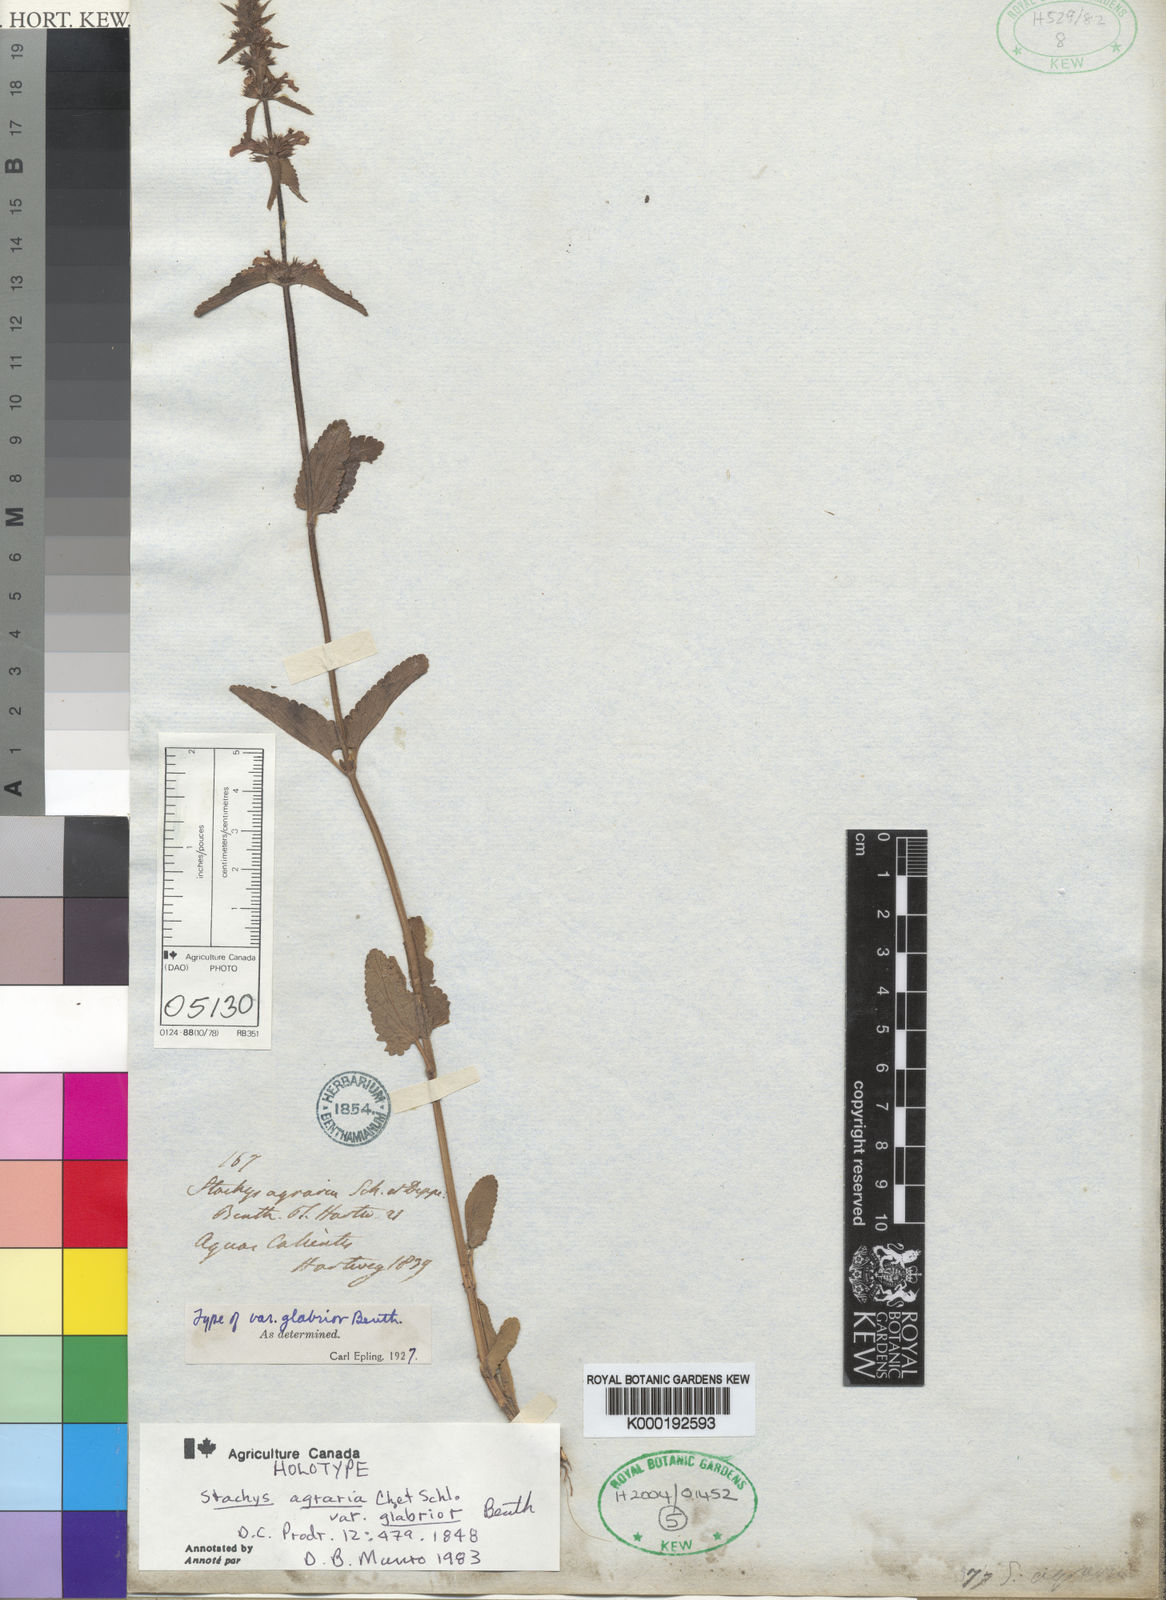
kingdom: Plantae
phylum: Tracheophyta
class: Magnoliopsida
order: Lamiales
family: Lamiaceae
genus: Stachys
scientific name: Stachys agraria
